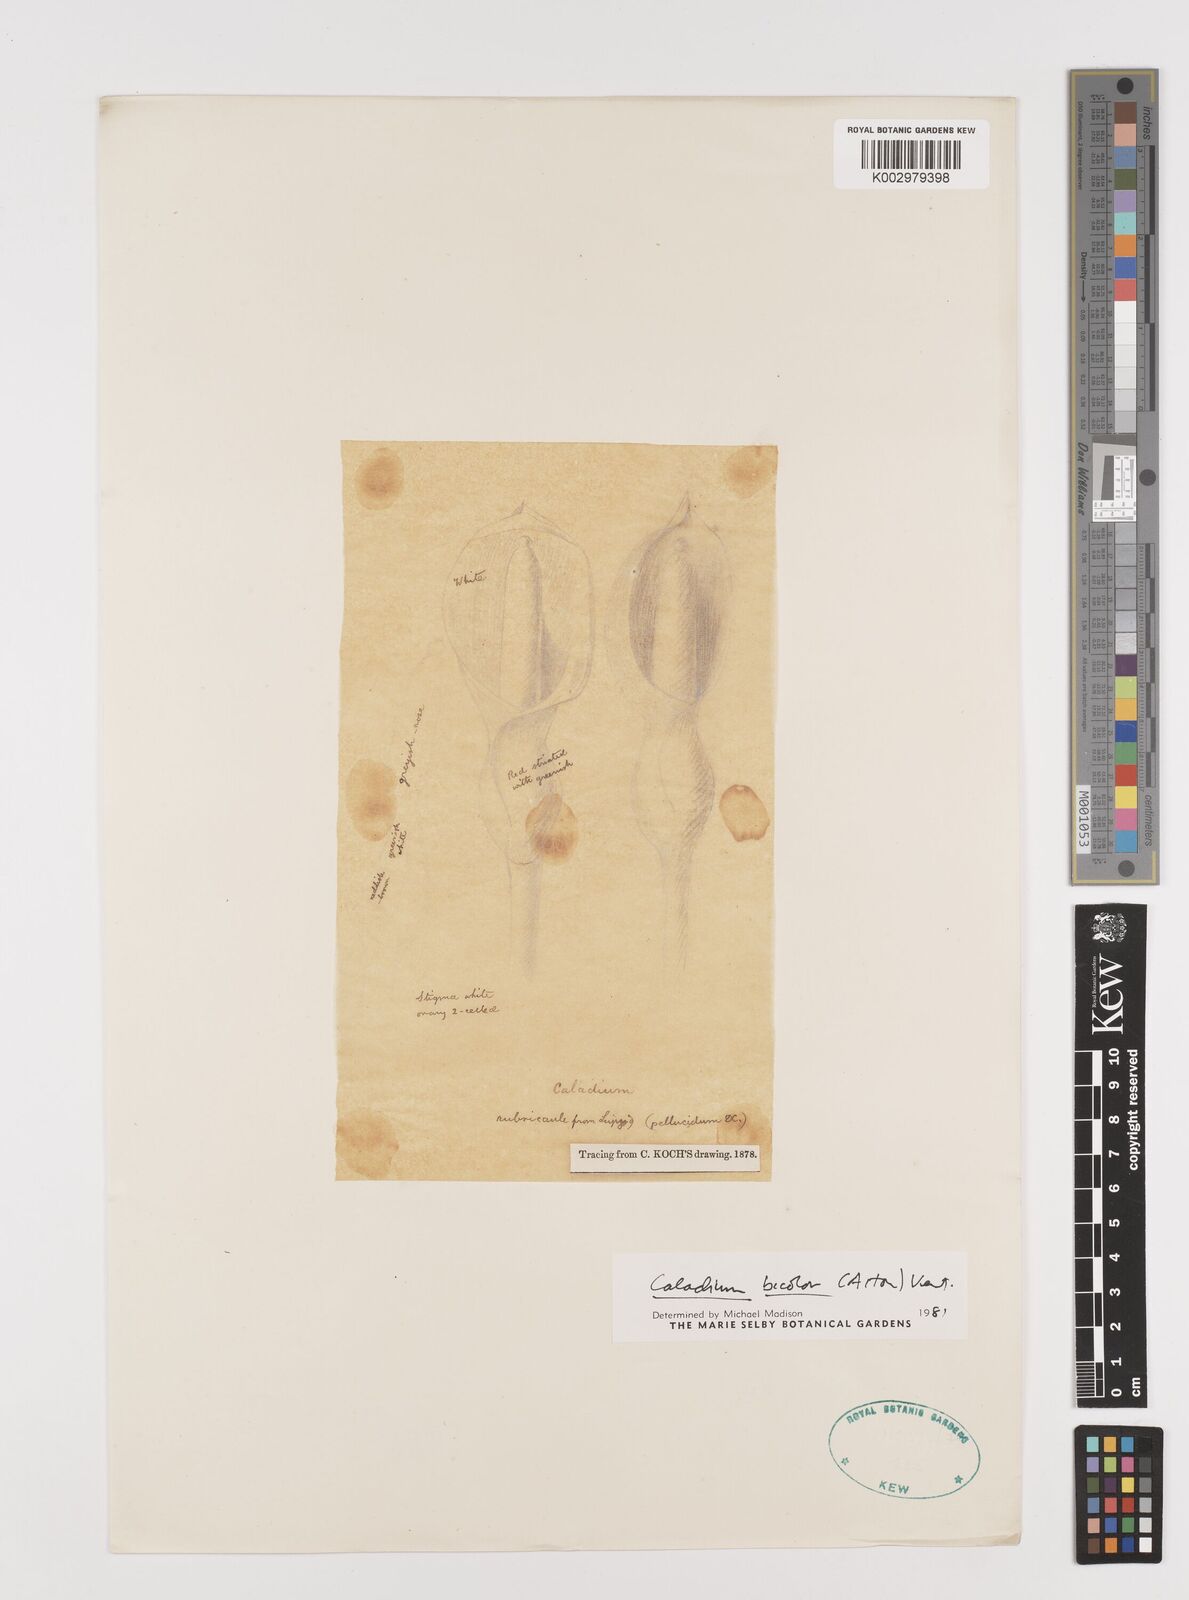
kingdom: Plantae
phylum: Tracheophyta
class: Liliopsida
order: Alismatales
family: Araceae
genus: Caladium
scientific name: Caladium bicolor
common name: Artist's pallet
